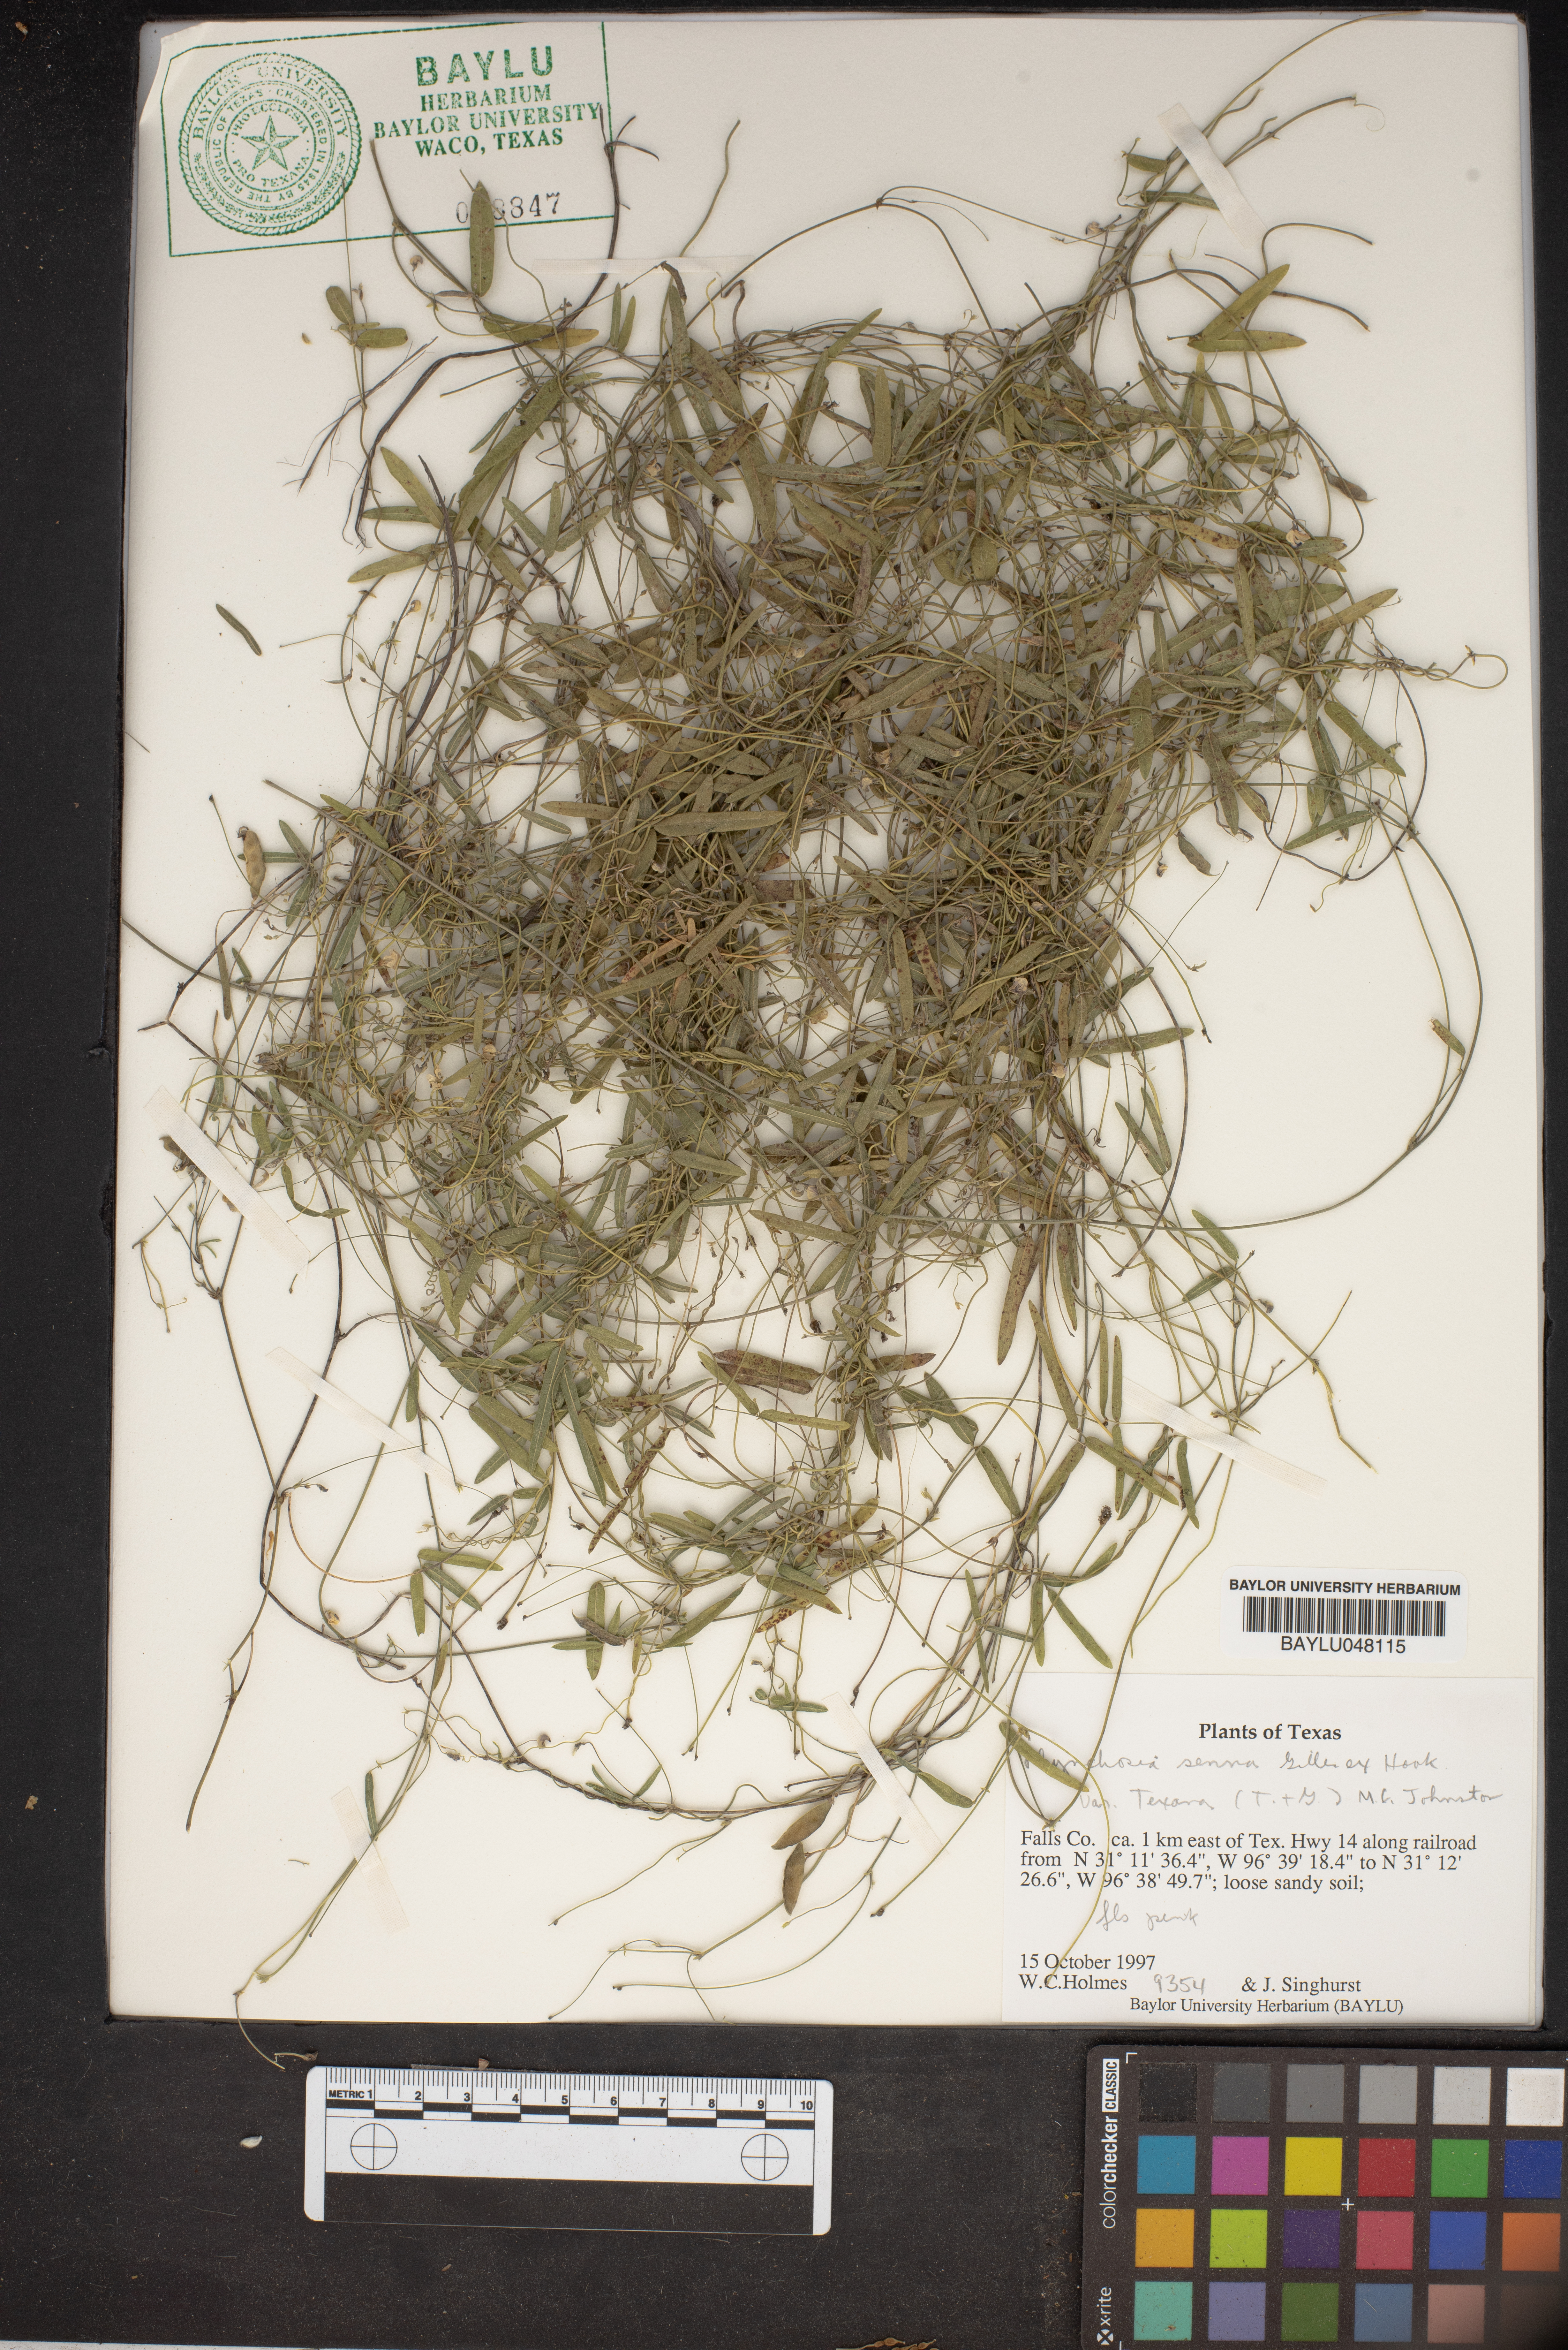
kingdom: Plantae
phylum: Tracheophyta
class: Magnoliopsida
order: Fabales
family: Fabaceae
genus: Rhynchosia
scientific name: Rhynchosia senna
